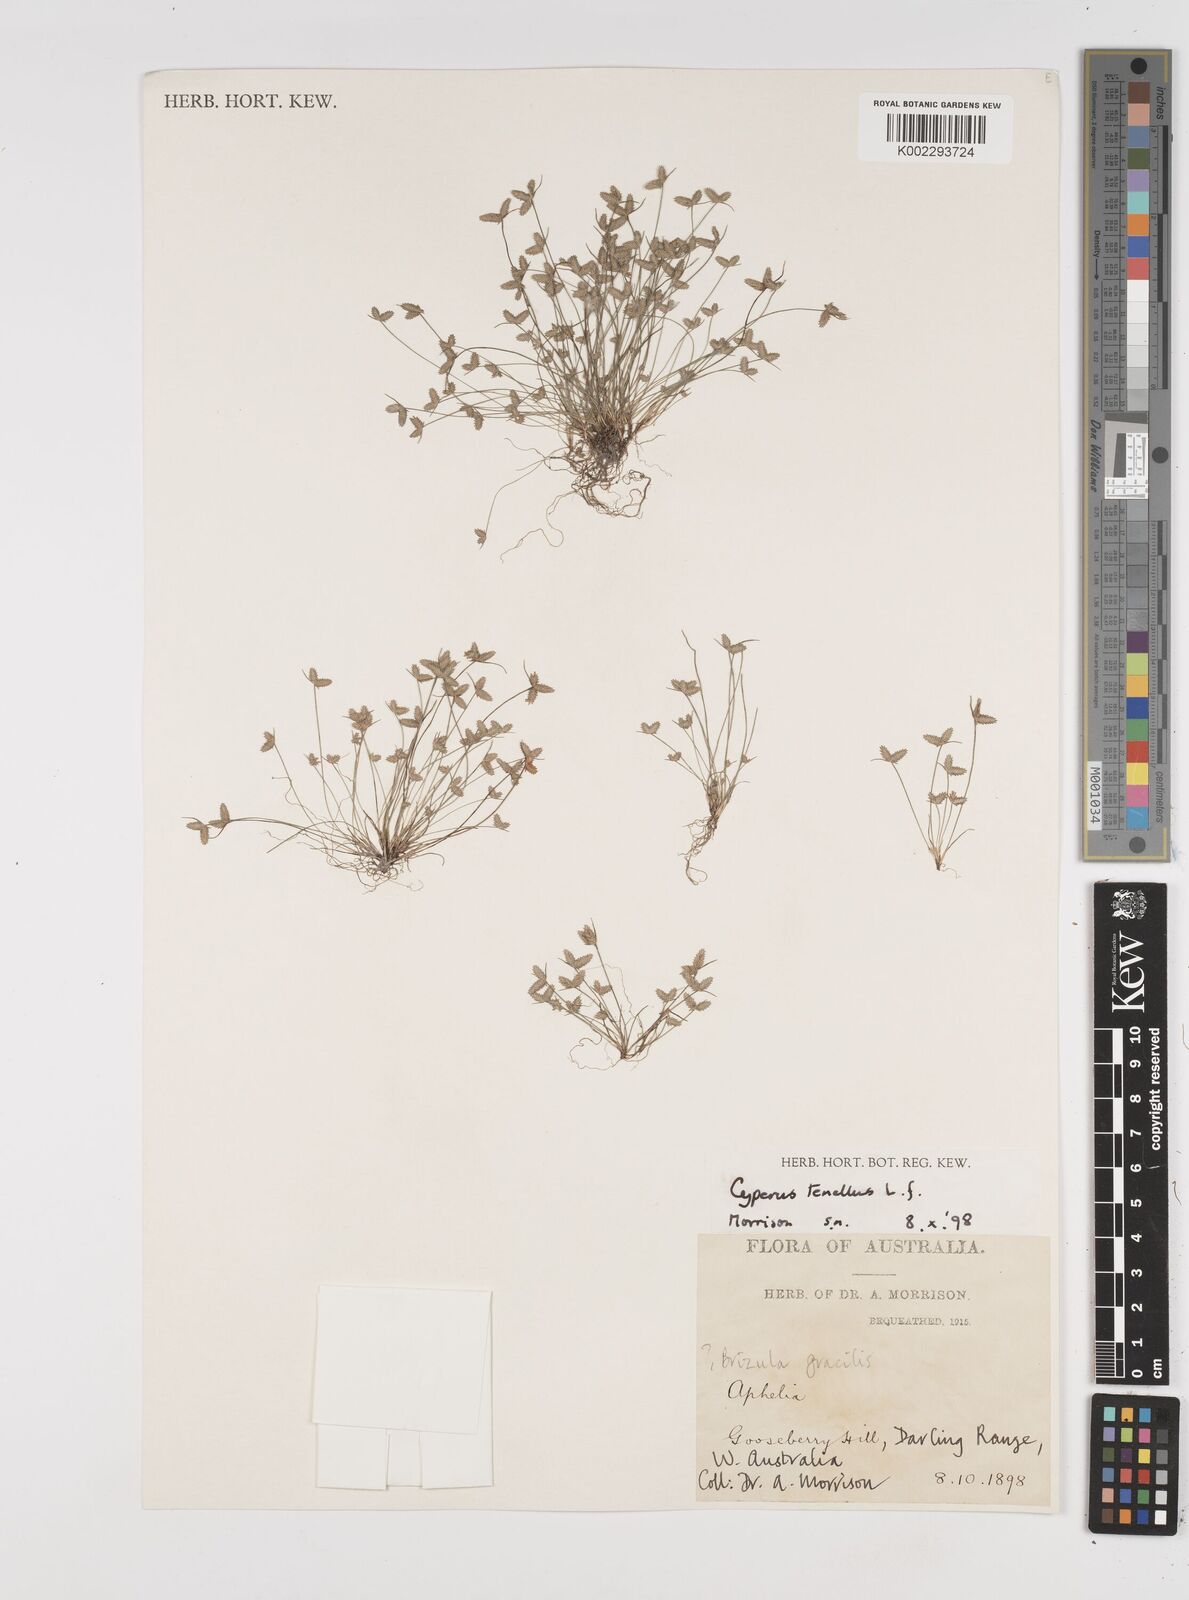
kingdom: Plantae
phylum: Tracheophyta
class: Liliopsida
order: Poales
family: Cyperaceae
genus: Isolepis
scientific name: Isolepis levynsiana
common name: Sedge
